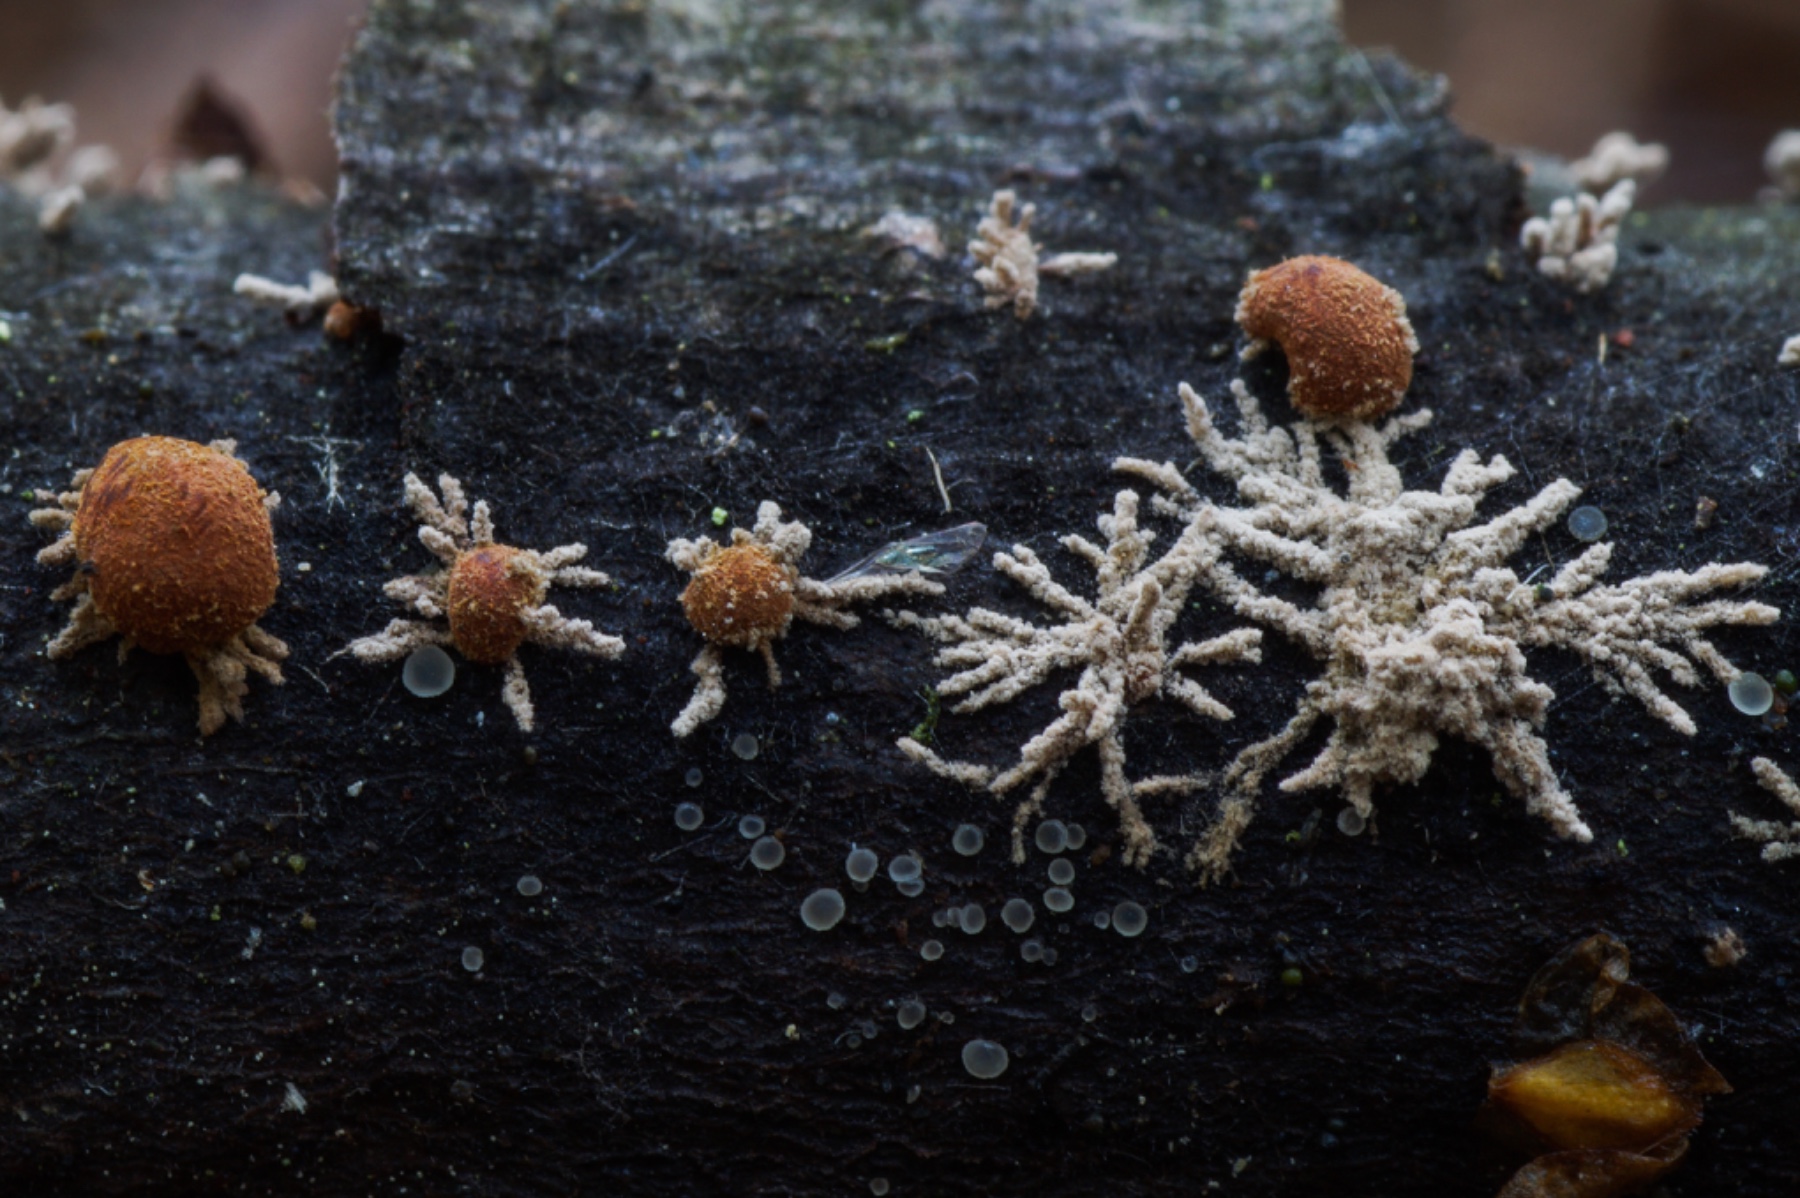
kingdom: Fungi
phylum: Ascomycota
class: Sordariomycetes
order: Xylariales
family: Hypoxylaceae
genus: Hypoxylon
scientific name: Hypoxylon howeanum
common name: halvkugleformet kulbær
